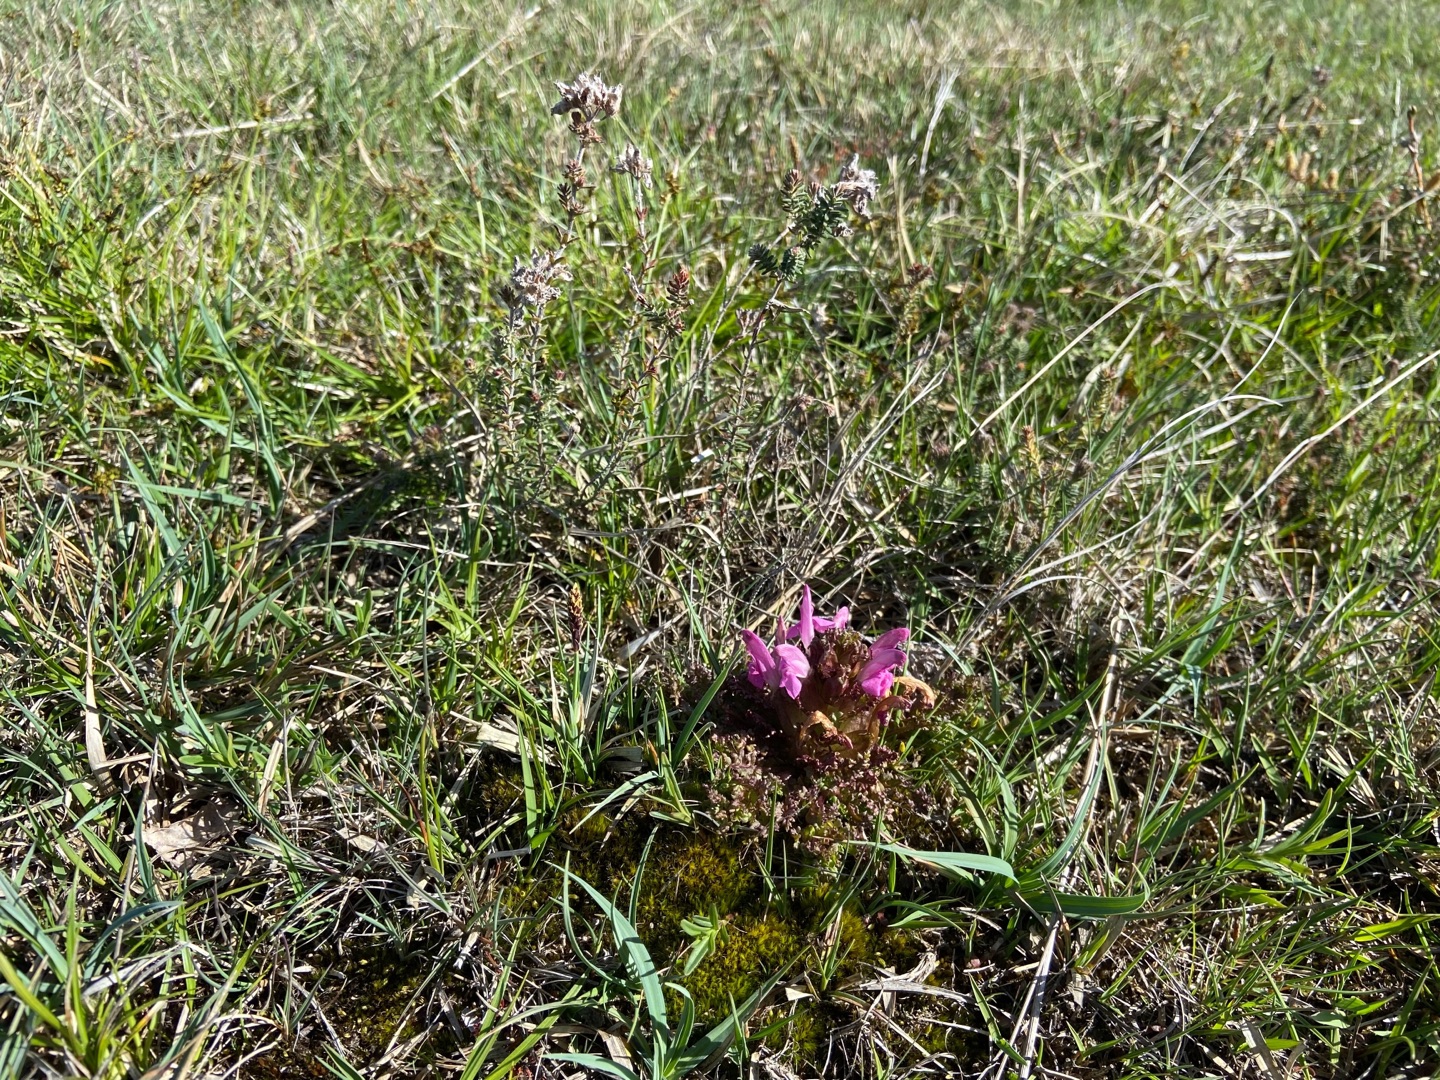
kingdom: Plantae
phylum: Tracheophyta
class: Magnoliopsida
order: Lamiales
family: Orobanchaceae
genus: Pedicularis
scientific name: Pedicularis sylvatica
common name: Mose-troldurt
